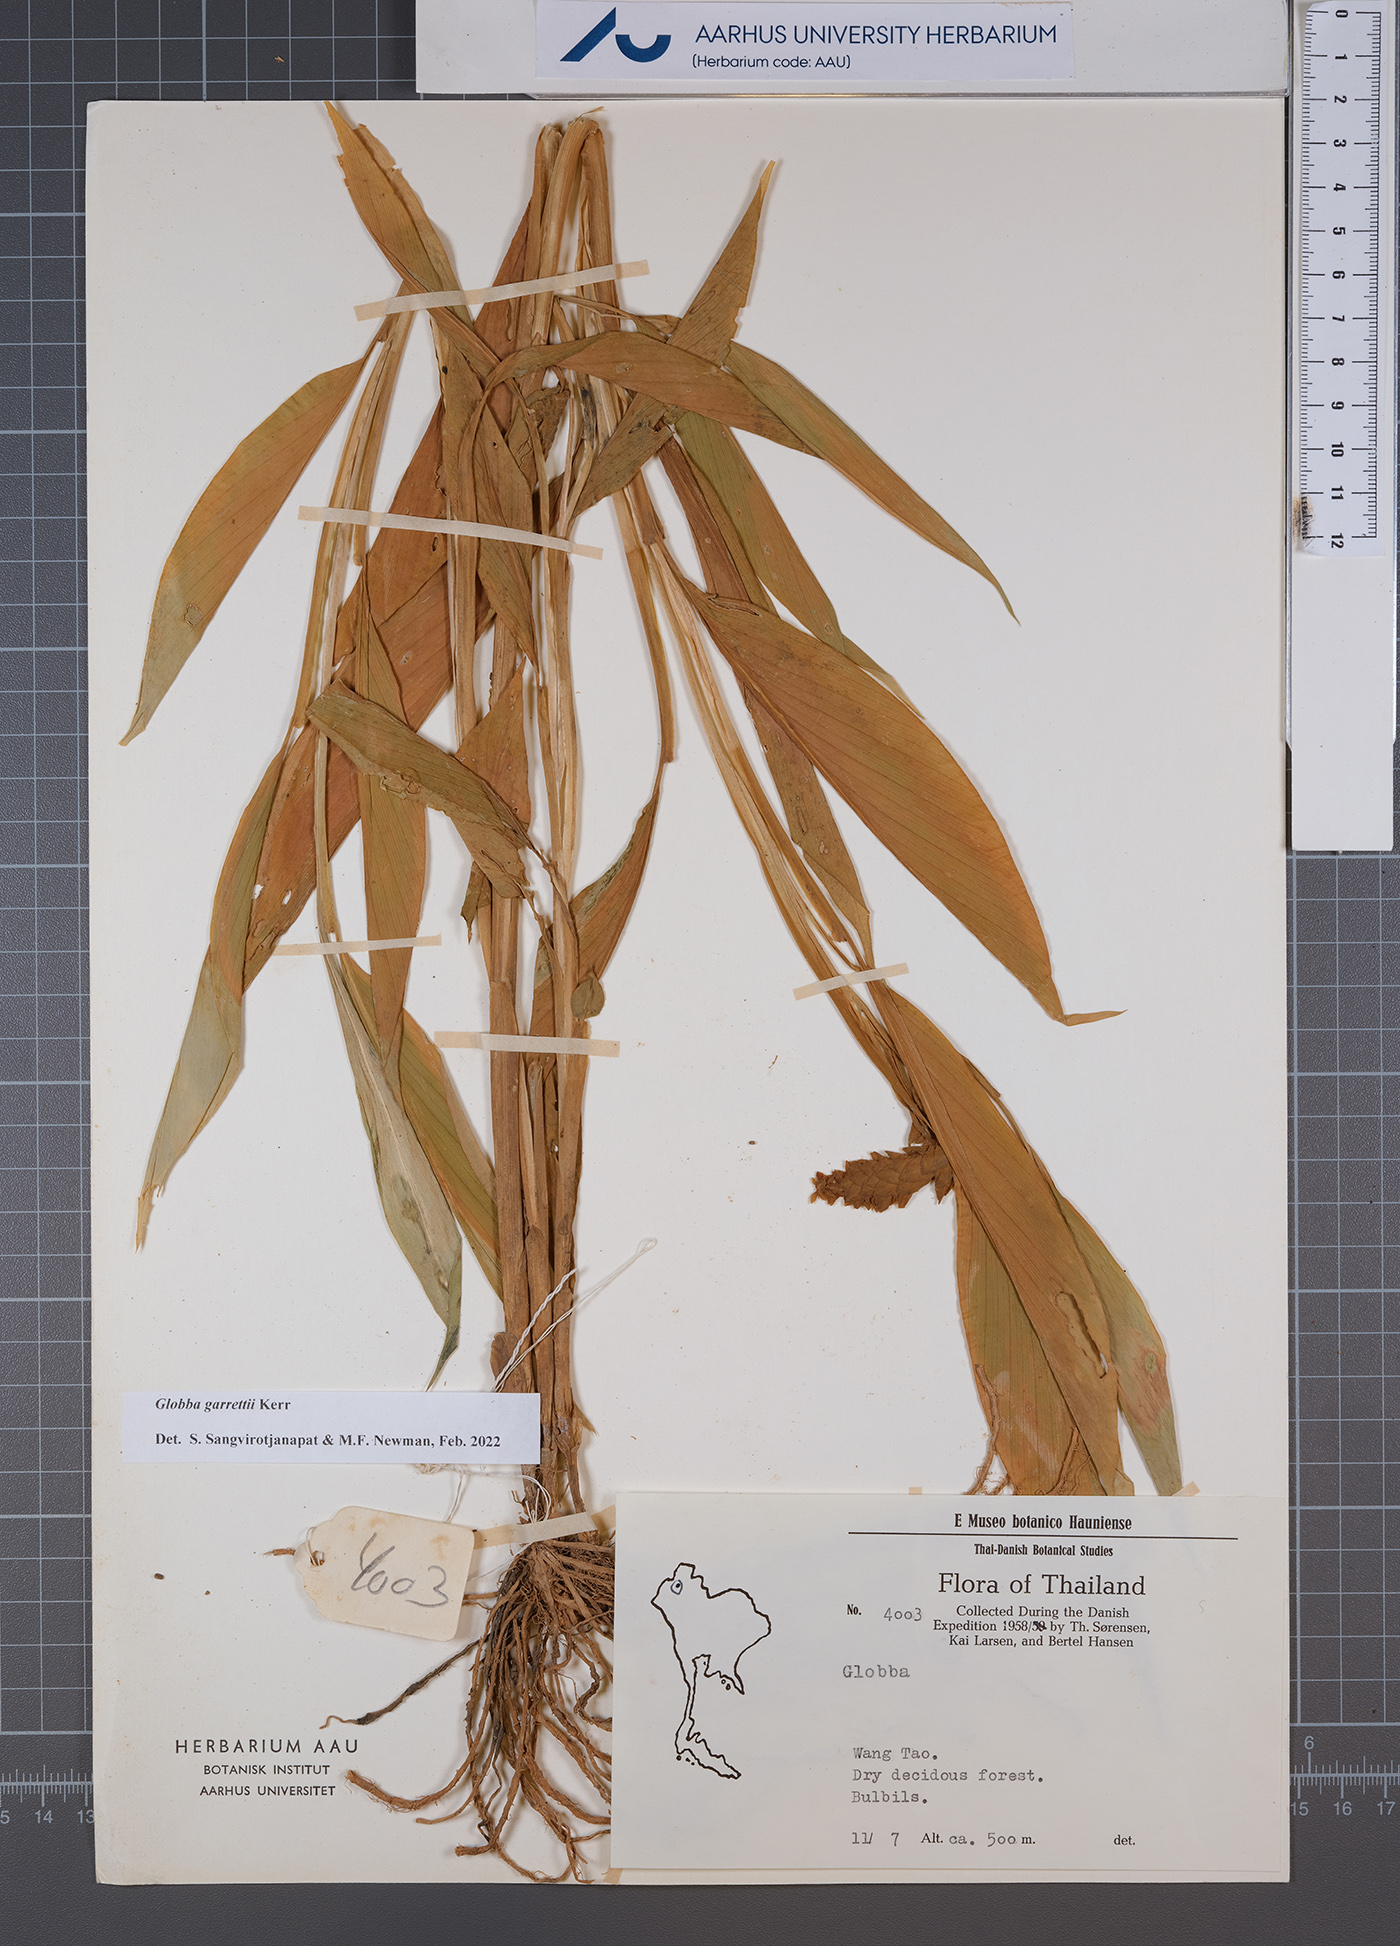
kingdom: Plantae
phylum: Tracheophyta
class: Liliopsida
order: Zingiberales
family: Zingiberaceae
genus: Globba
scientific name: Globba garrettii
